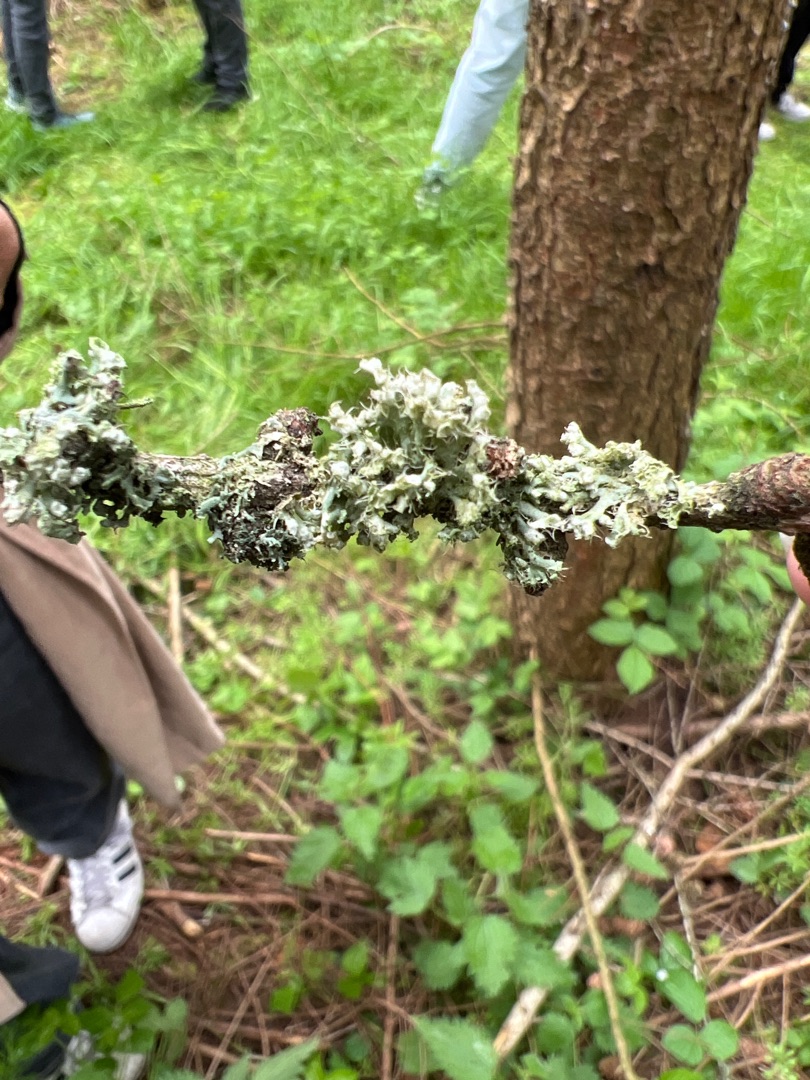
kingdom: Fungi
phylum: Ascomycota
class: Lecanoromycetes
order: Caliciales
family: Physciaceae
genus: Physcia
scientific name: Physcia adscendens
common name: Hætte-rosetlav
